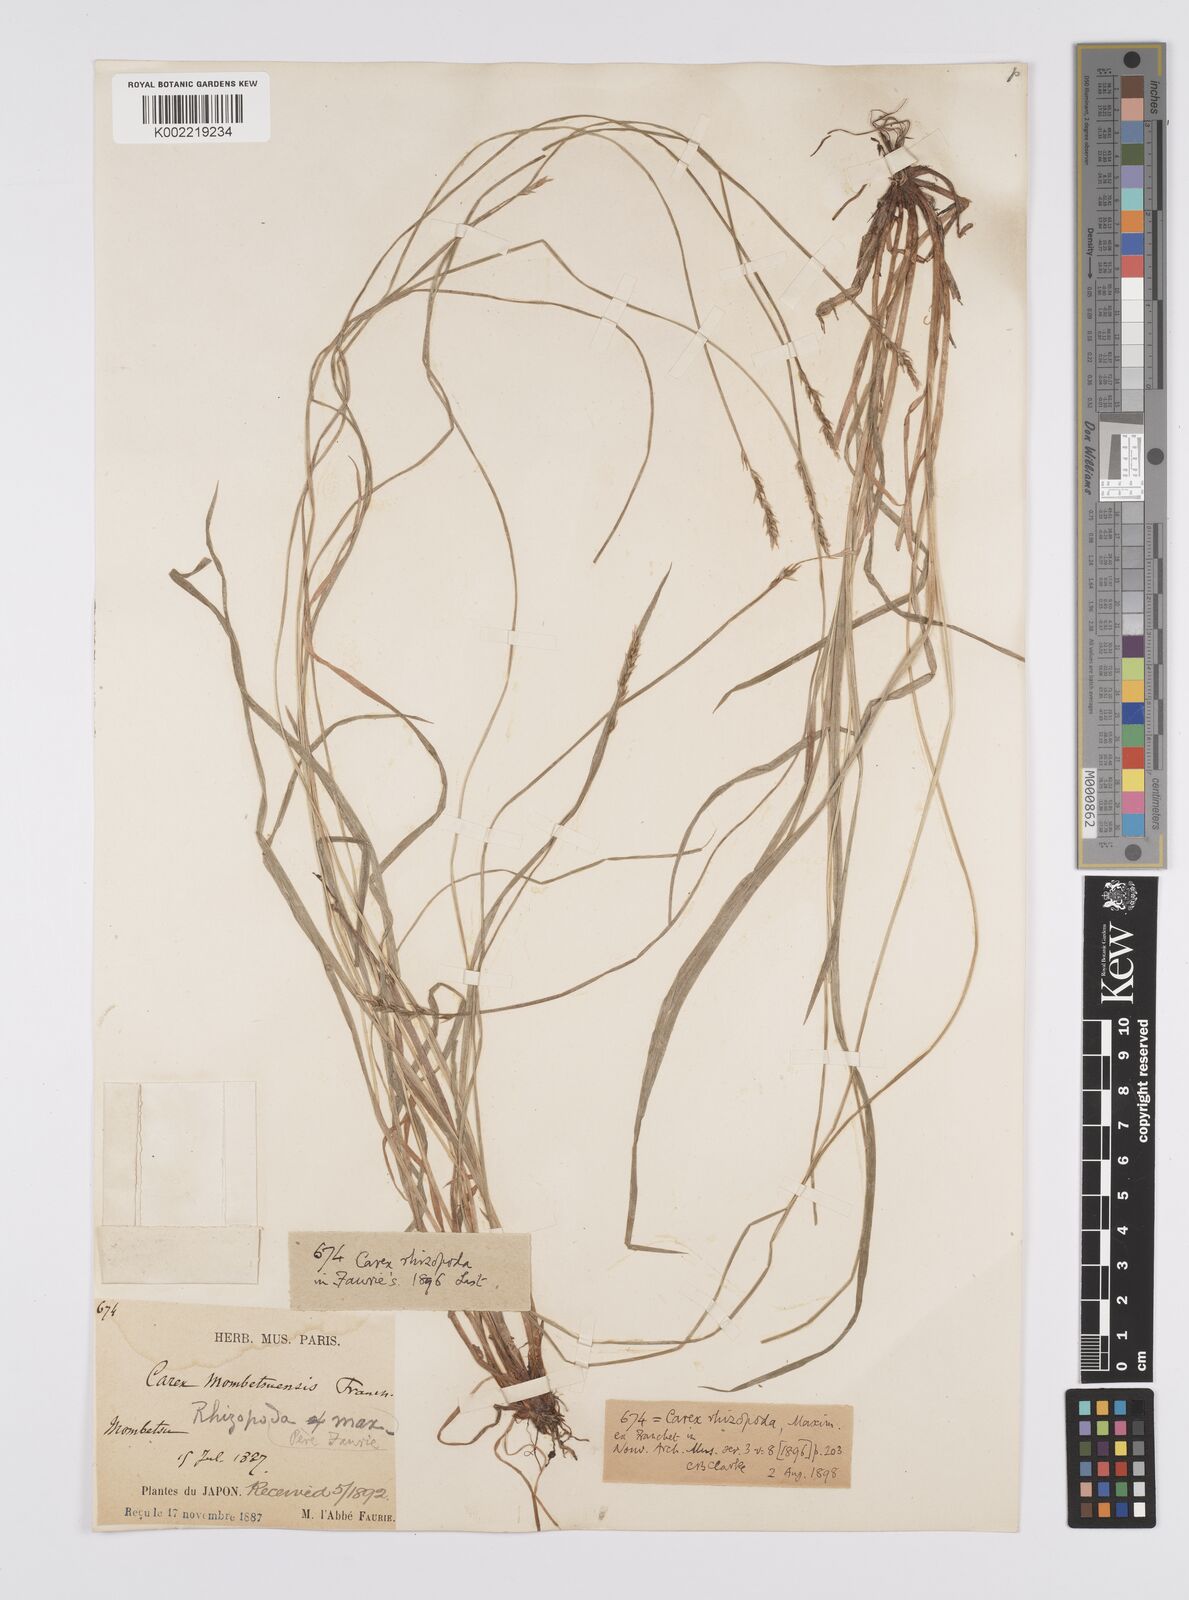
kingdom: Plantae
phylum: Tracheophyta
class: Liliopsida
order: Poales
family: Cyperaceae
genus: Carex
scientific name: Carex rhizopoda
